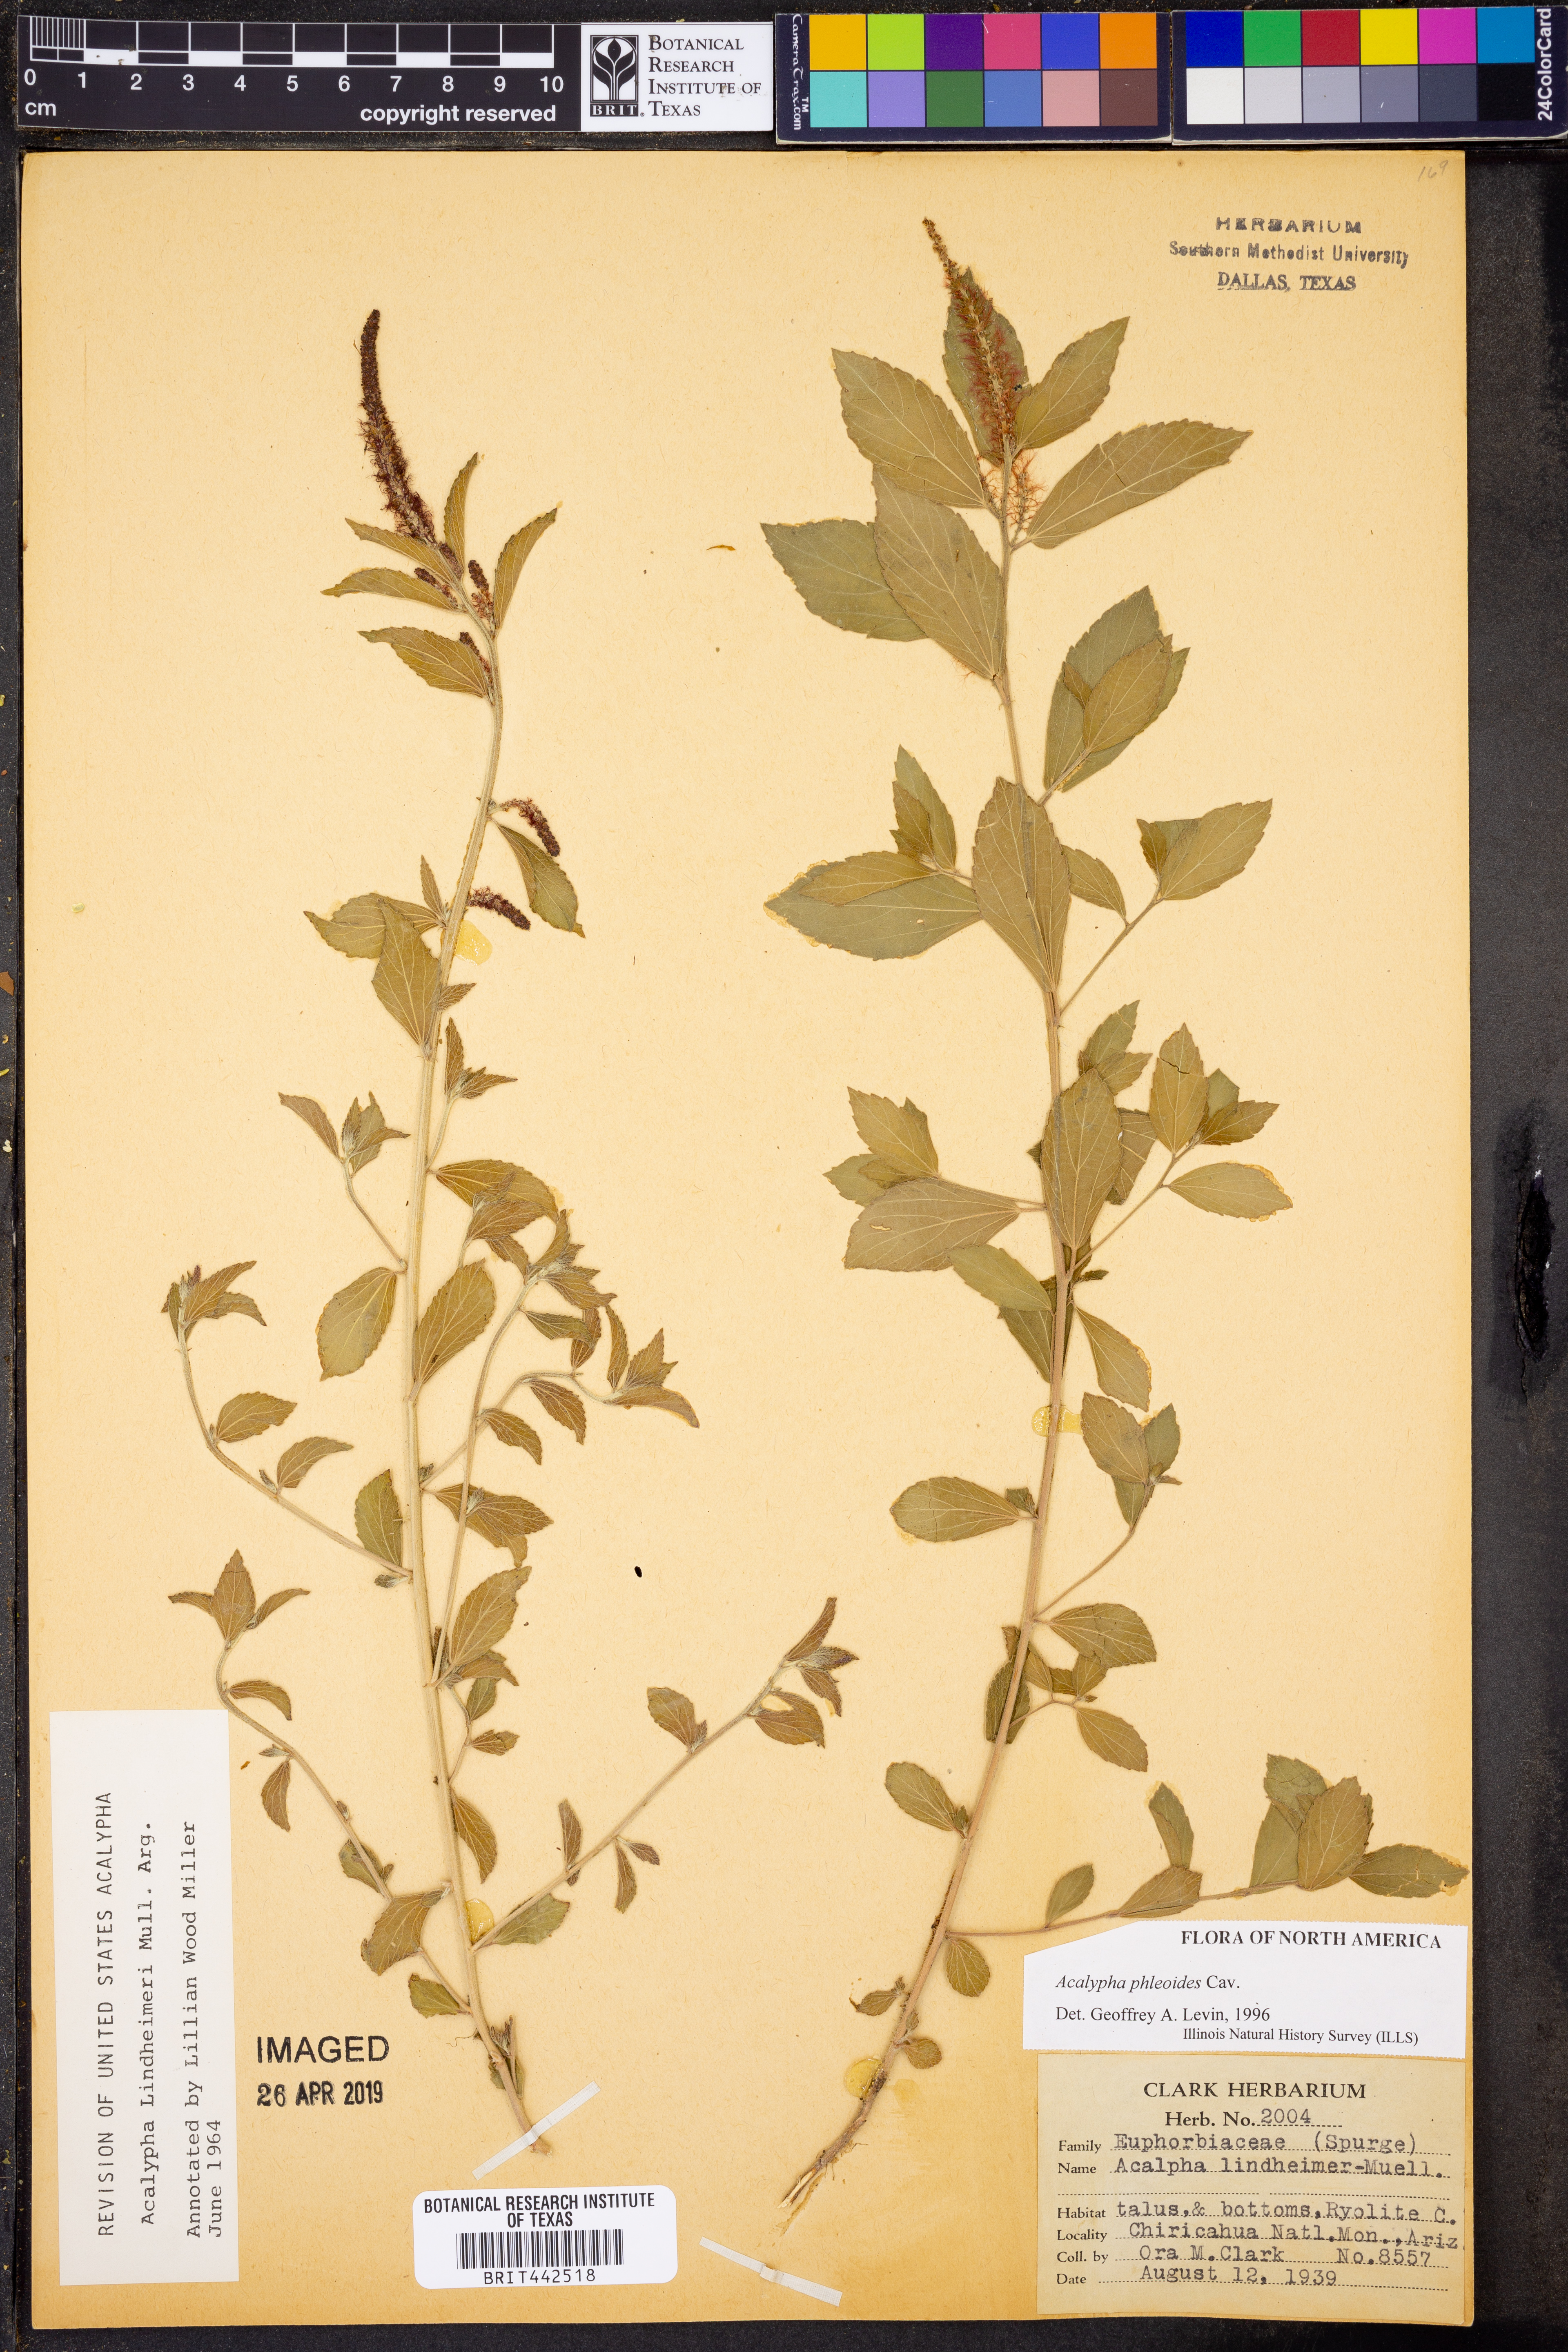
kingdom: Plantae
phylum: Tracheophyta
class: Magnoliopsida
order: Malpighiales
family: Euphorbiaceae
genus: Acalypha
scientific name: Acalypha phleoides
